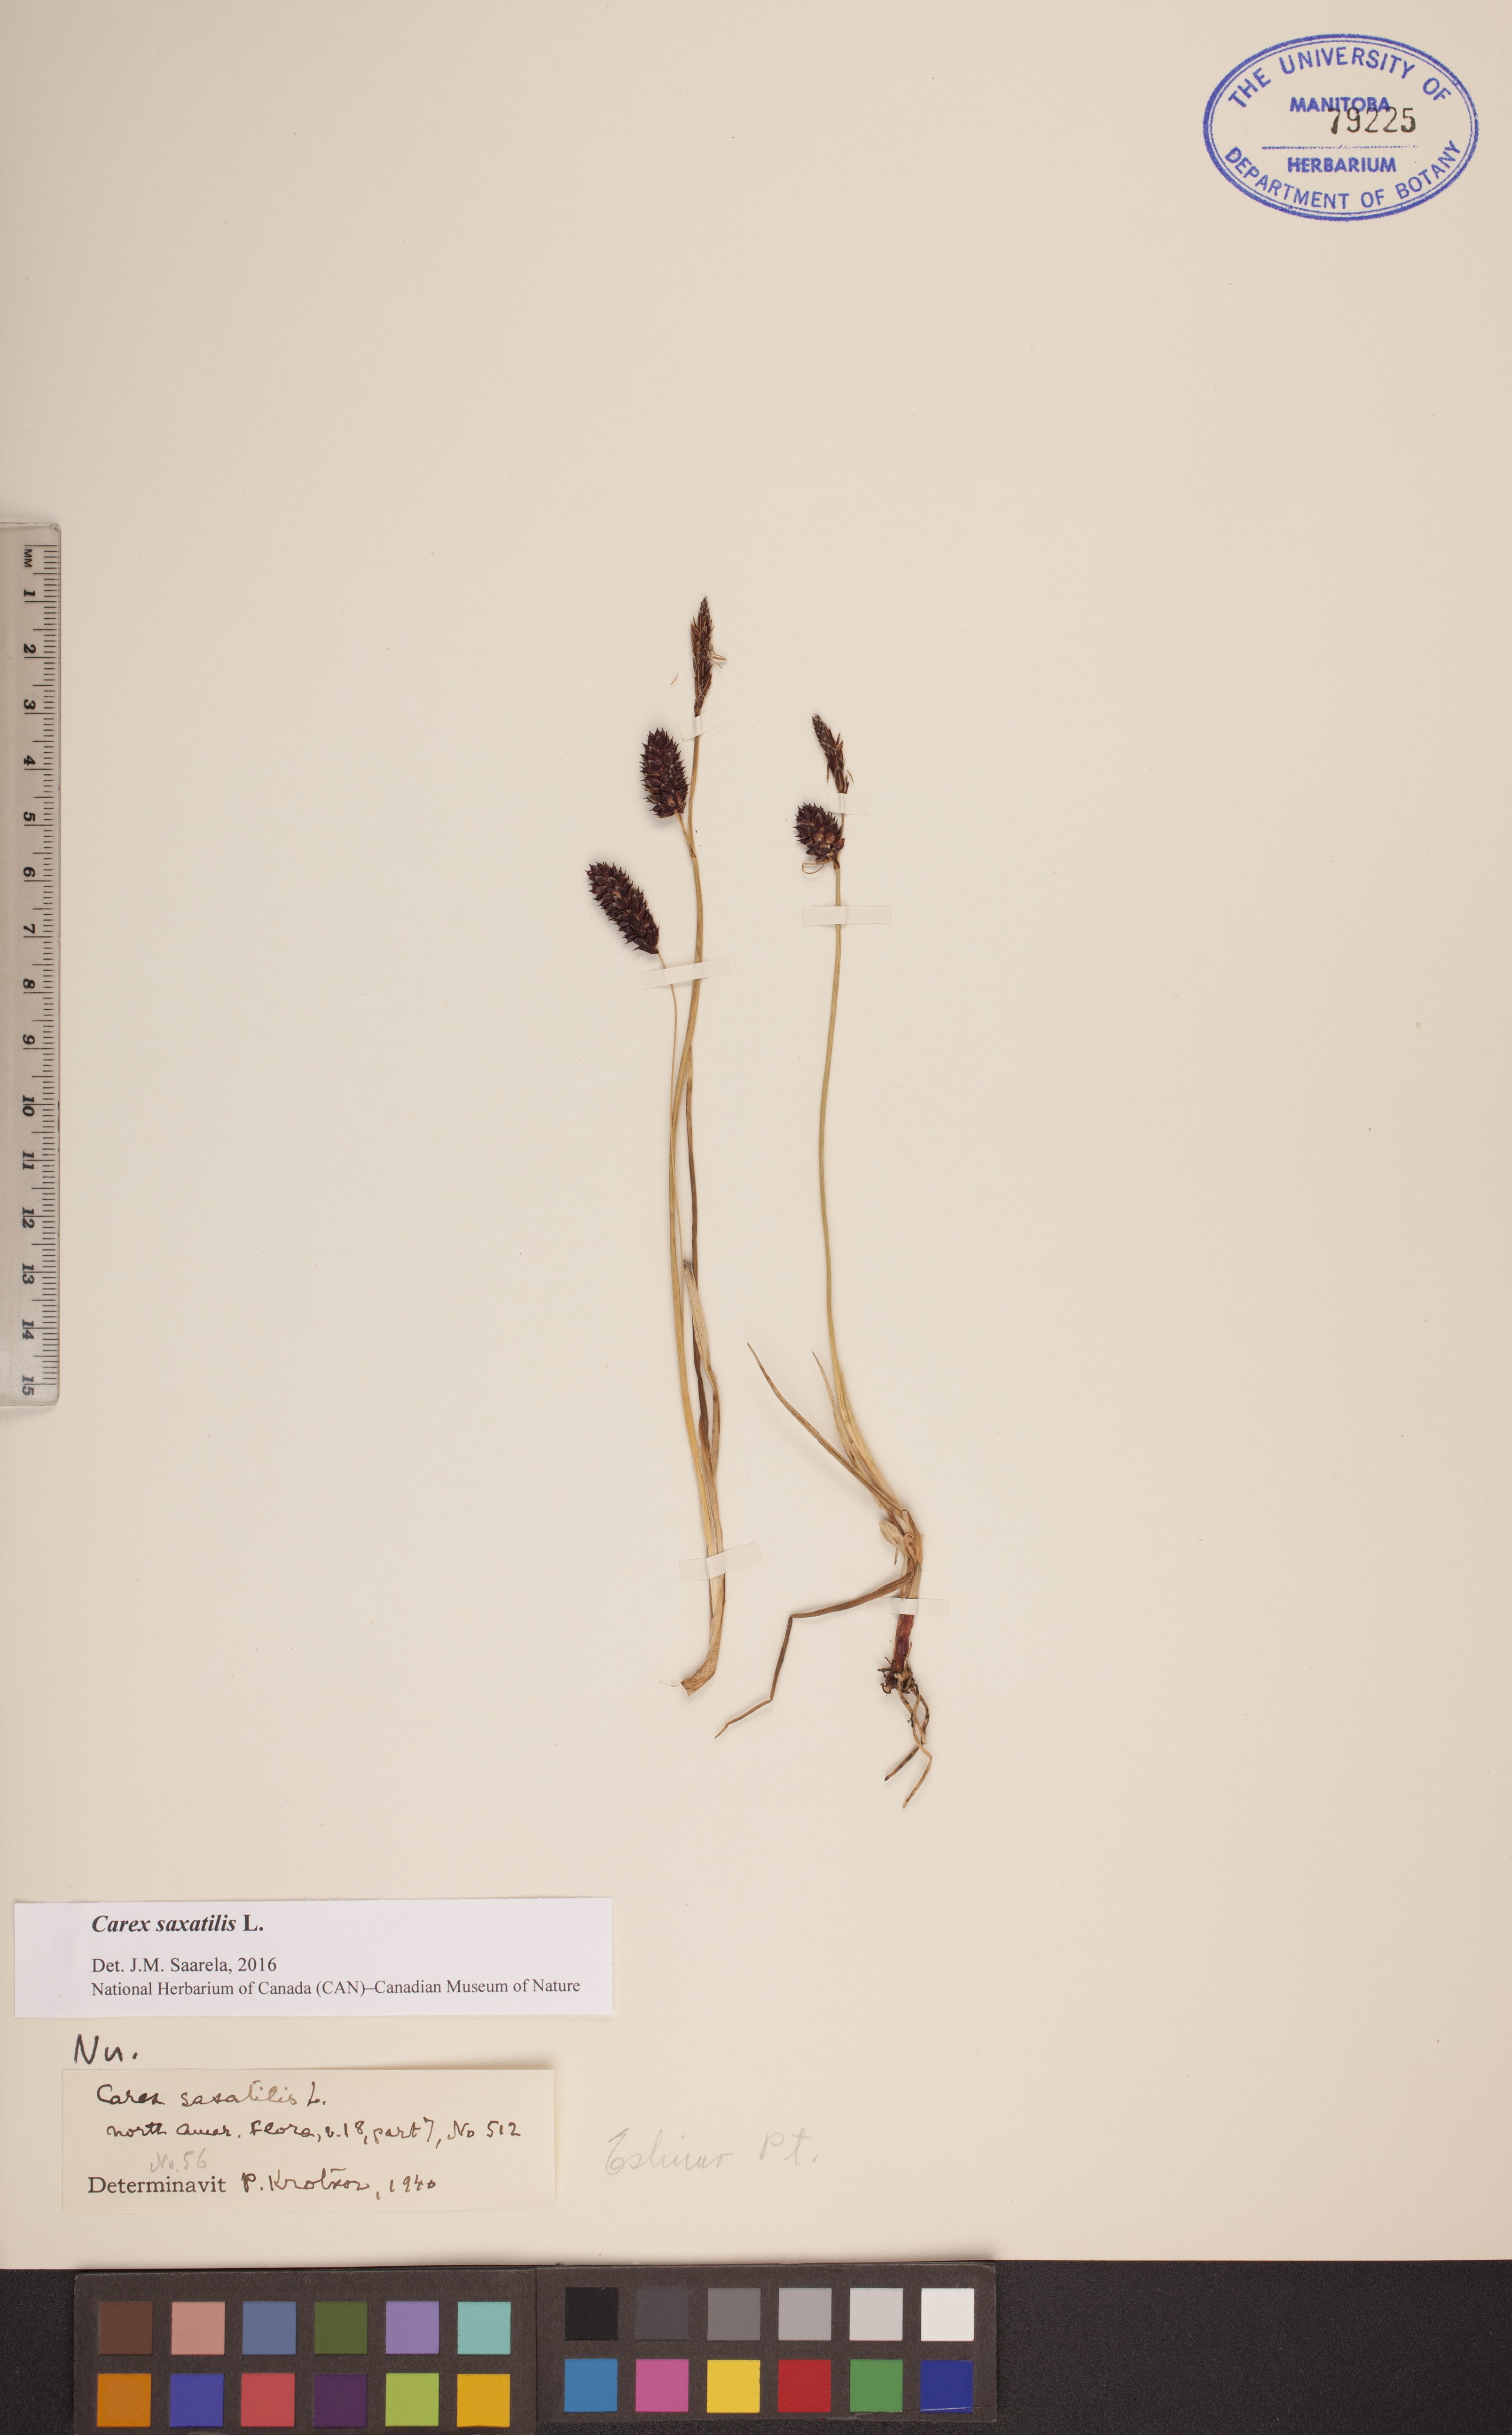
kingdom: Plantae
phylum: Tracheophyta
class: Liliopsida
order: Poales
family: Cyperaceae
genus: Carex
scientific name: Carex saxatilis
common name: Russet sedge
